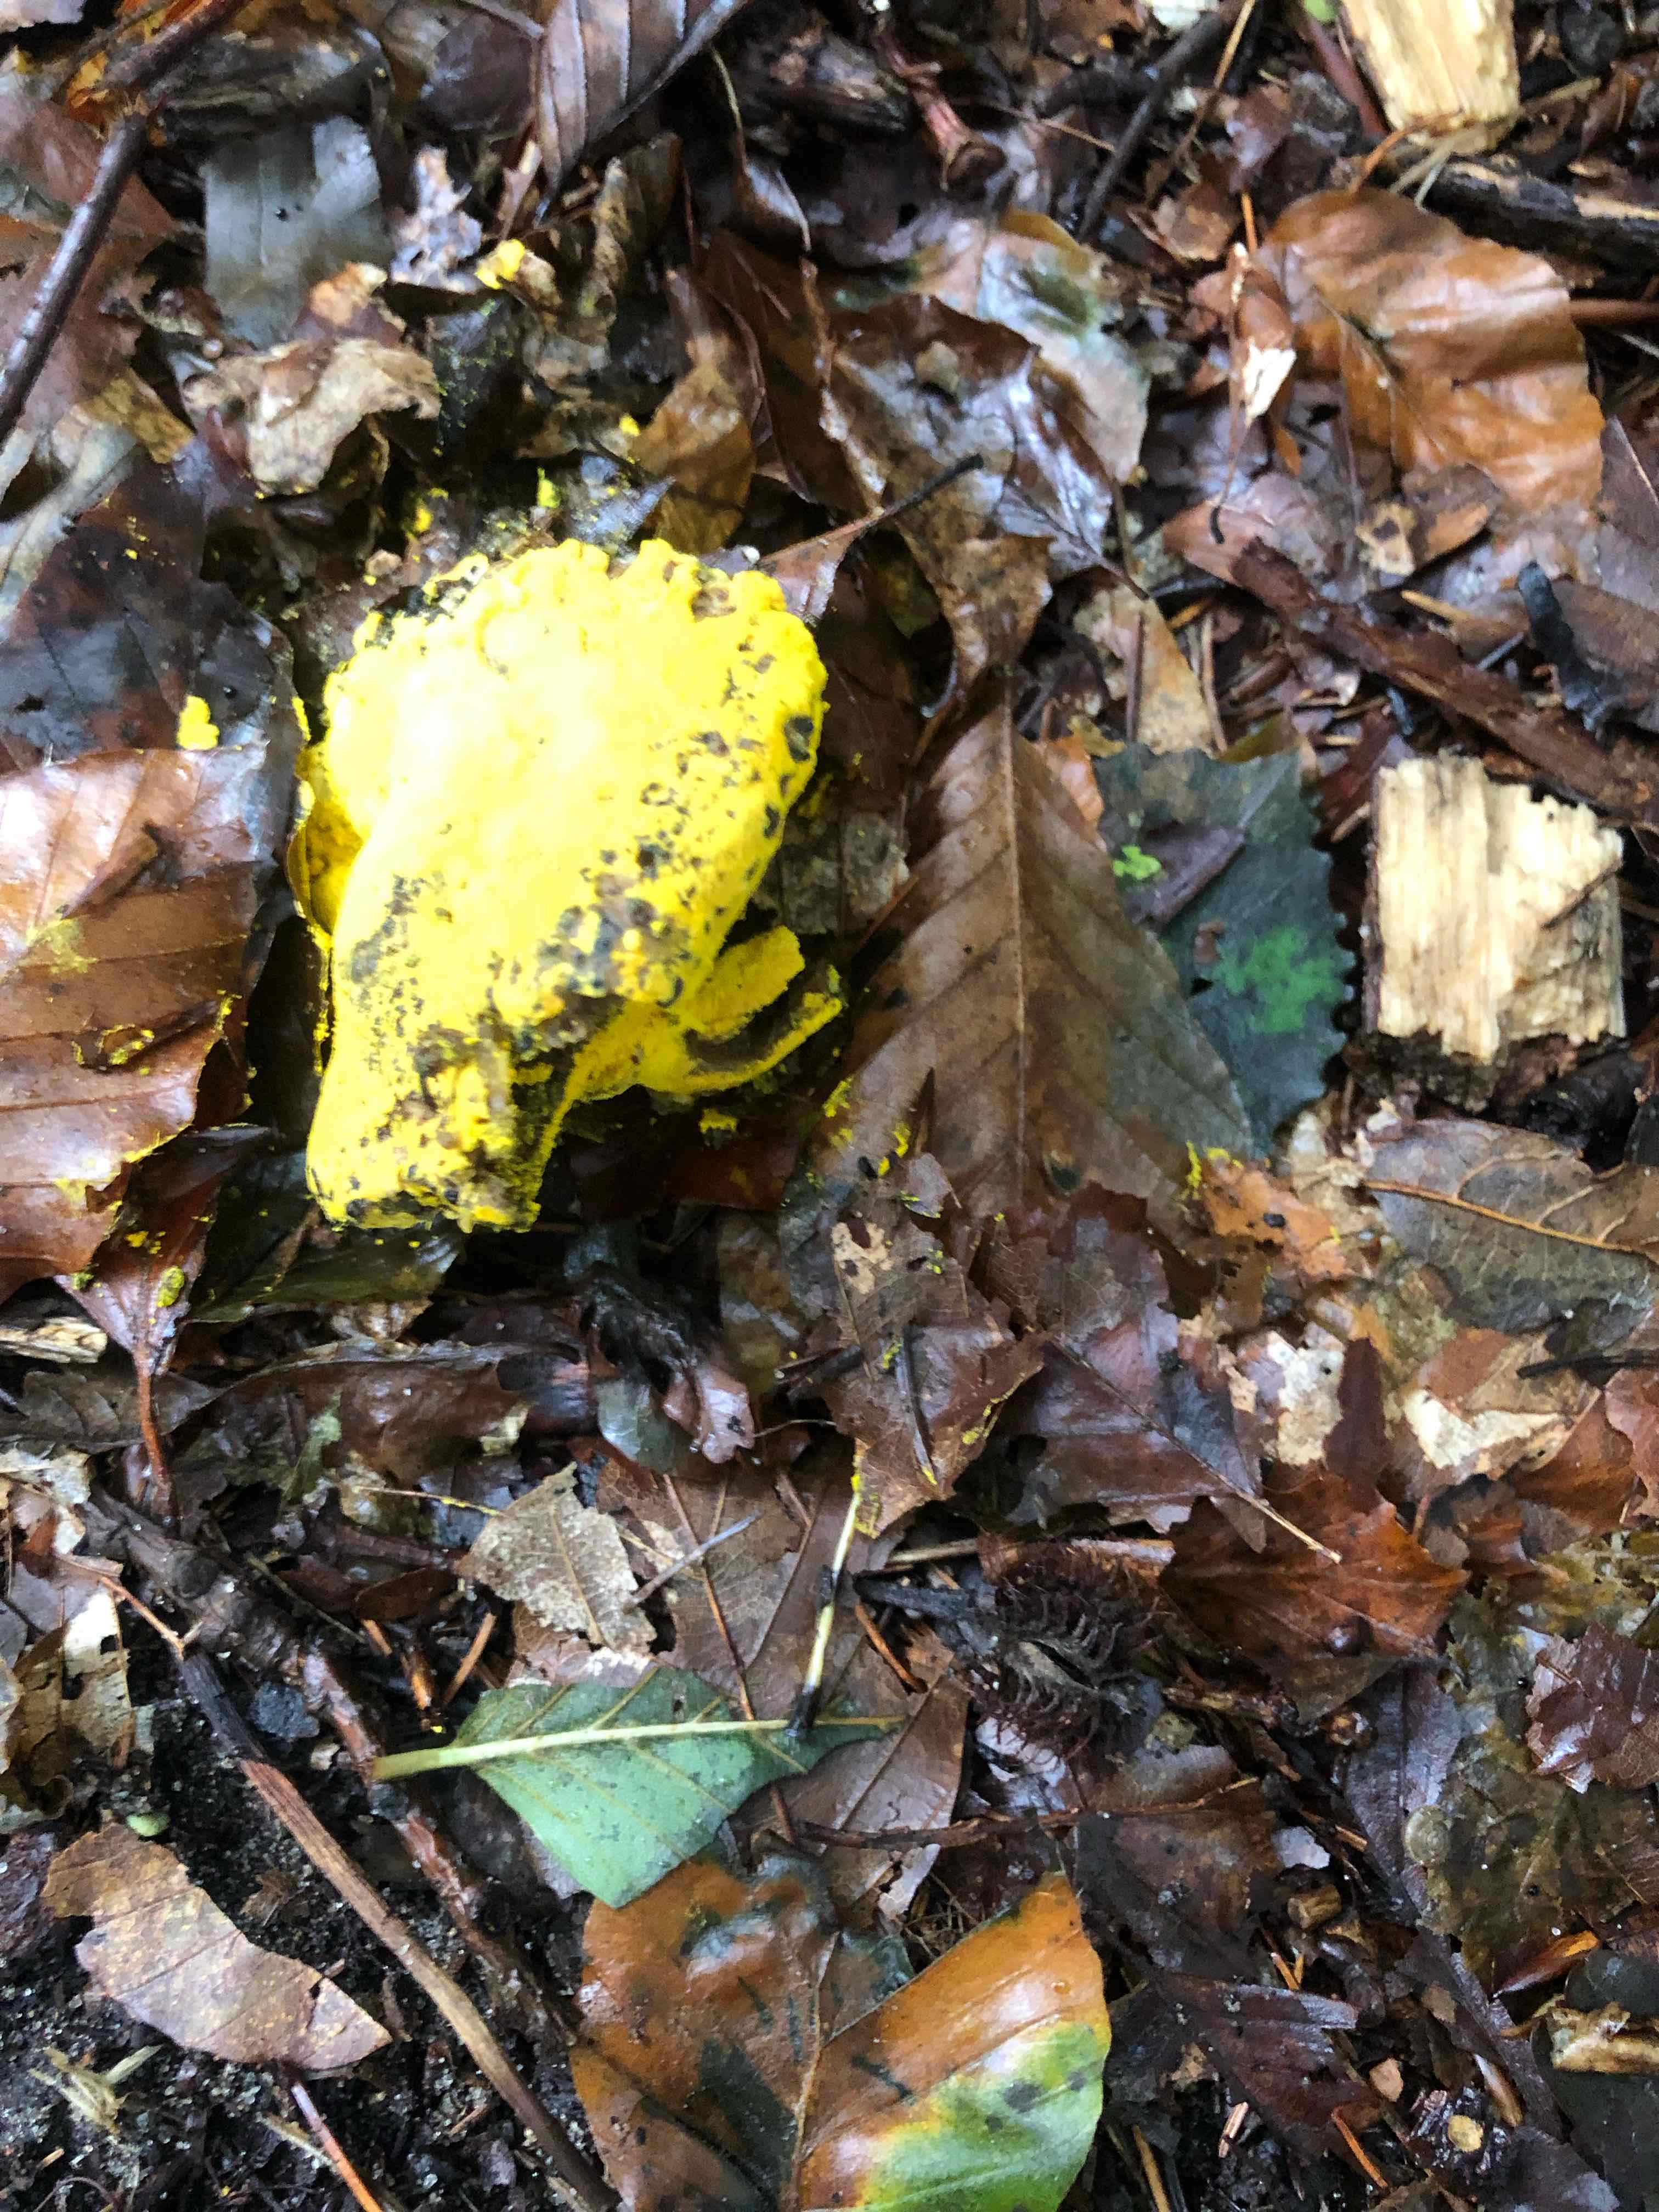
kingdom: Fungi
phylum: Ascomycota
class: Sordariomycetes
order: Hypocreales
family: Hypocreaceae
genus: Hypomyces
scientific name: Hypomyces
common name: snylteskorpe
